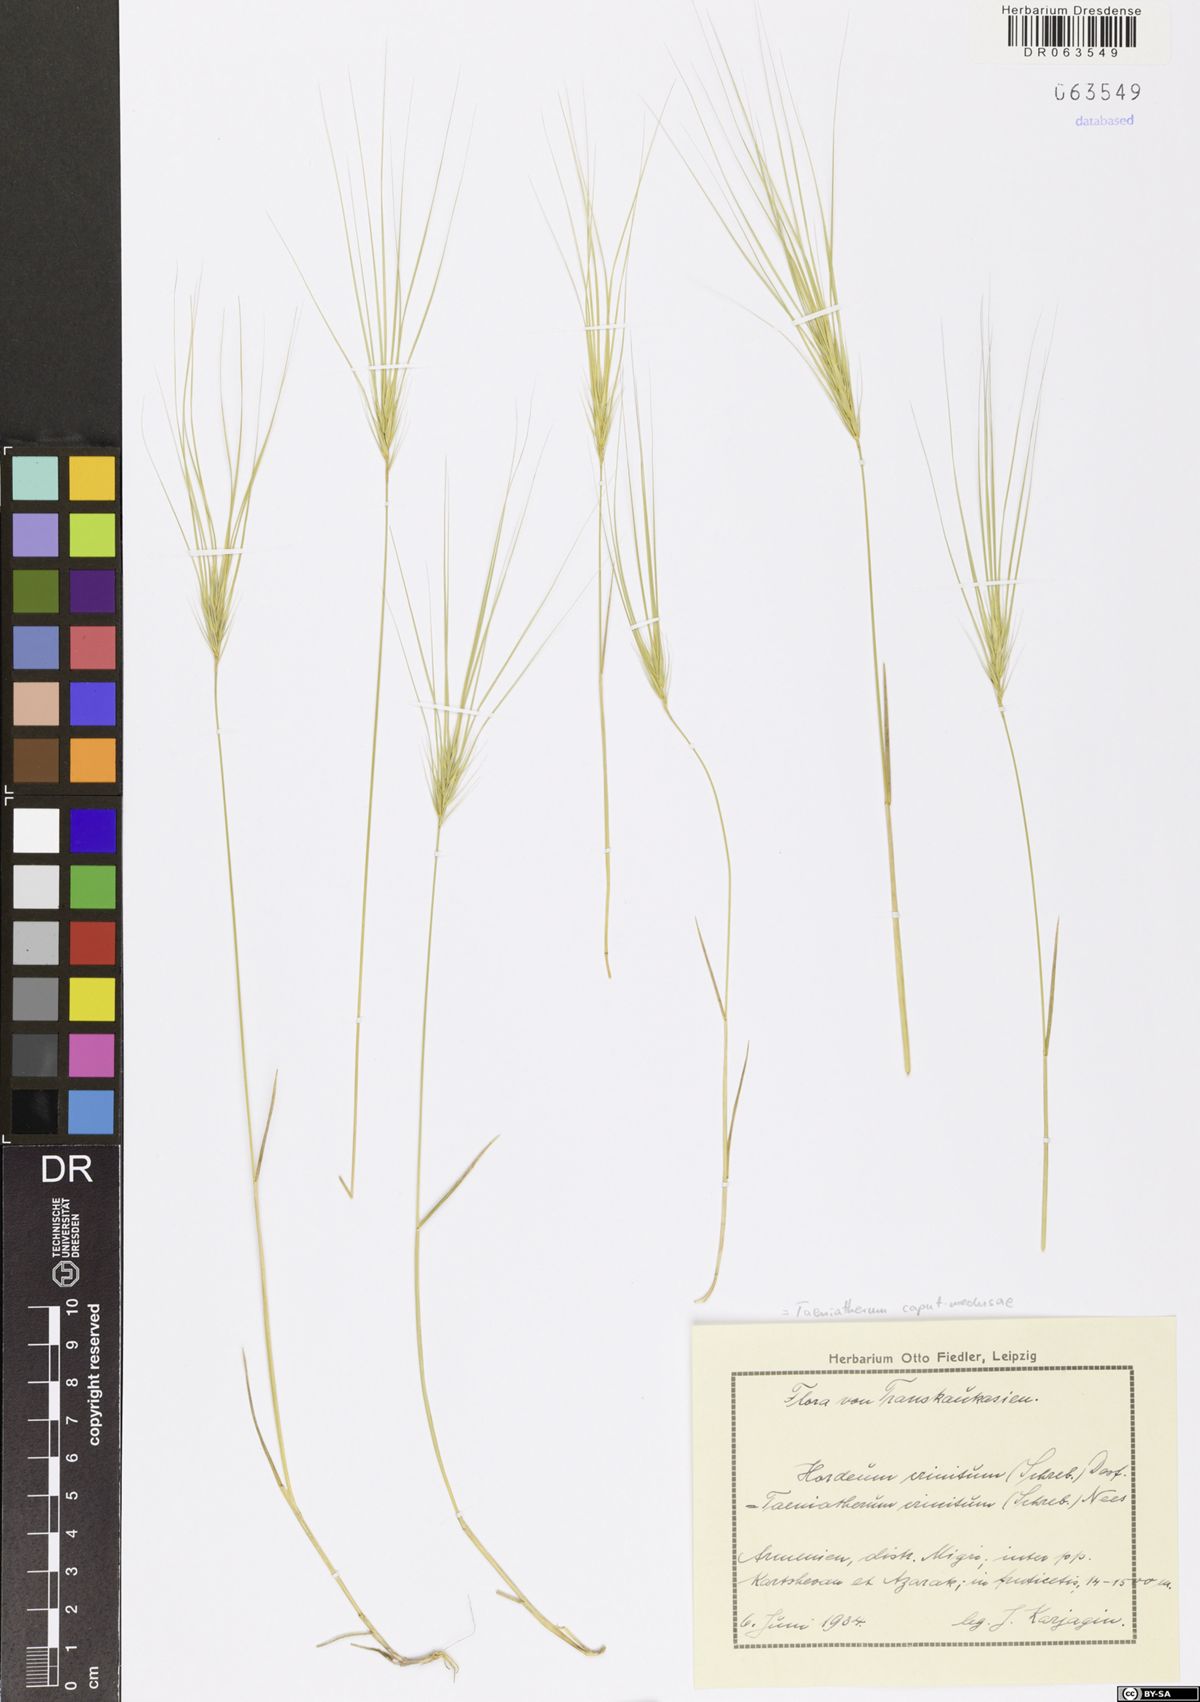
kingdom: Plantae
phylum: Tracheophyta
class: Liliopsida
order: Poales
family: Poaceae
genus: Taeniatherum
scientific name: Taeniatherum caput-medusae
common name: Medusahead
